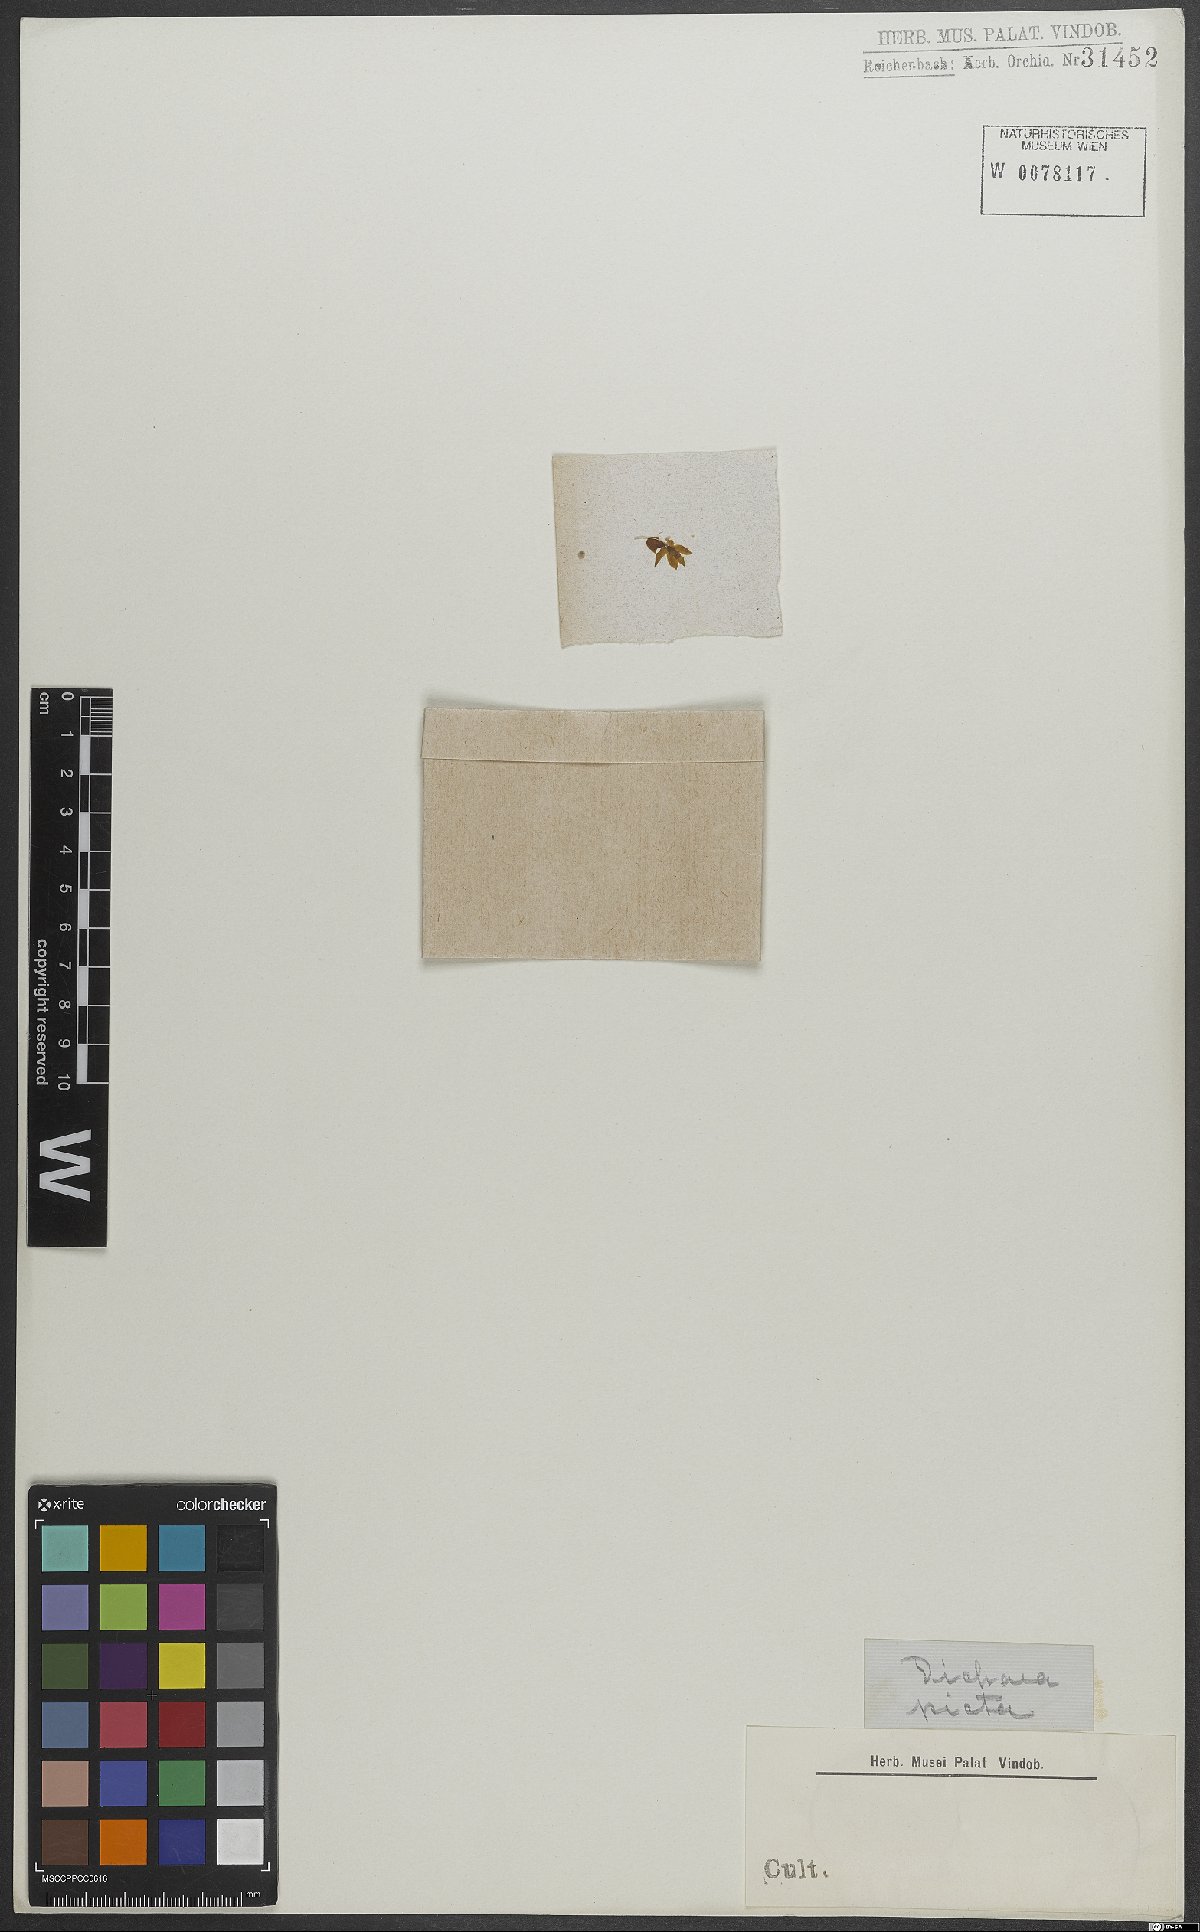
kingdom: Plantae
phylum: Tracheophyta
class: Liliopsida
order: Asparagales
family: Orchidaceae
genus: Dichaea
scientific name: Dichaea picta
